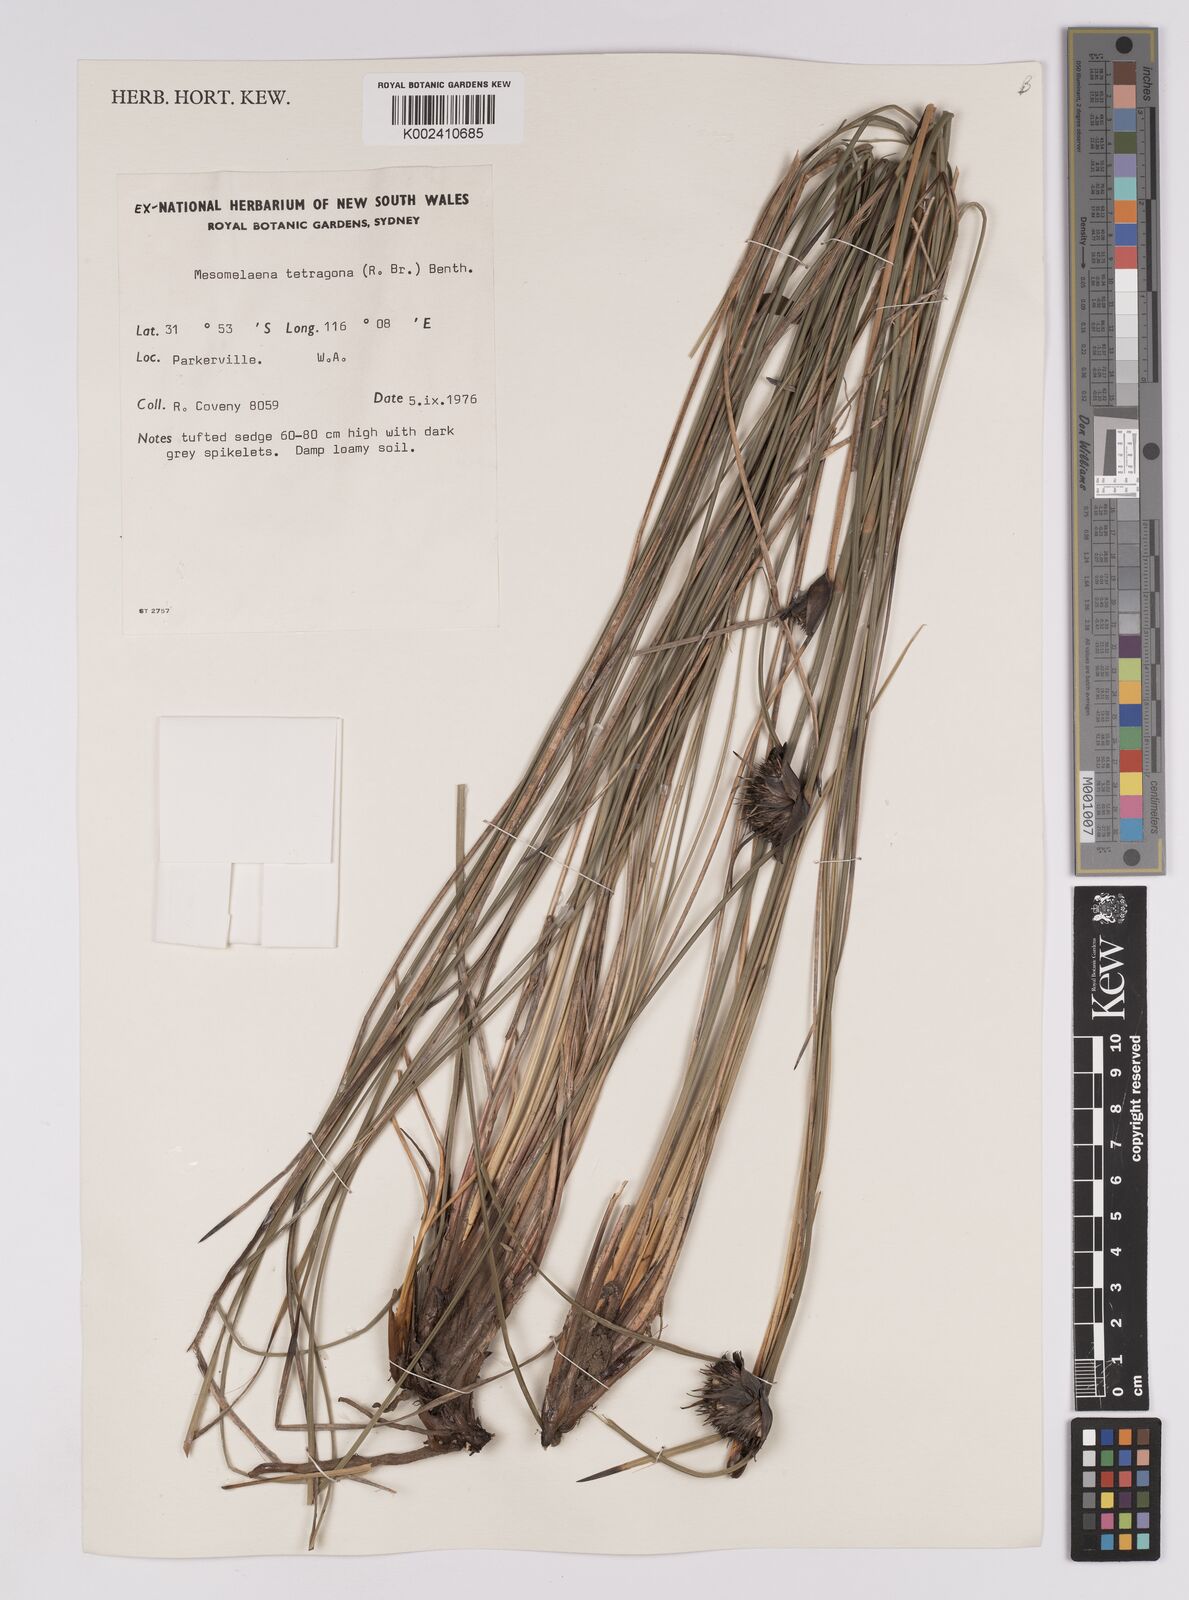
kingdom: Plantae
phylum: Tracheophyta
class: Liliopsida
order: Poales
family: Cyperaceae
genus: Mesomelaena
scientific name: Mesomelaena tetragona
